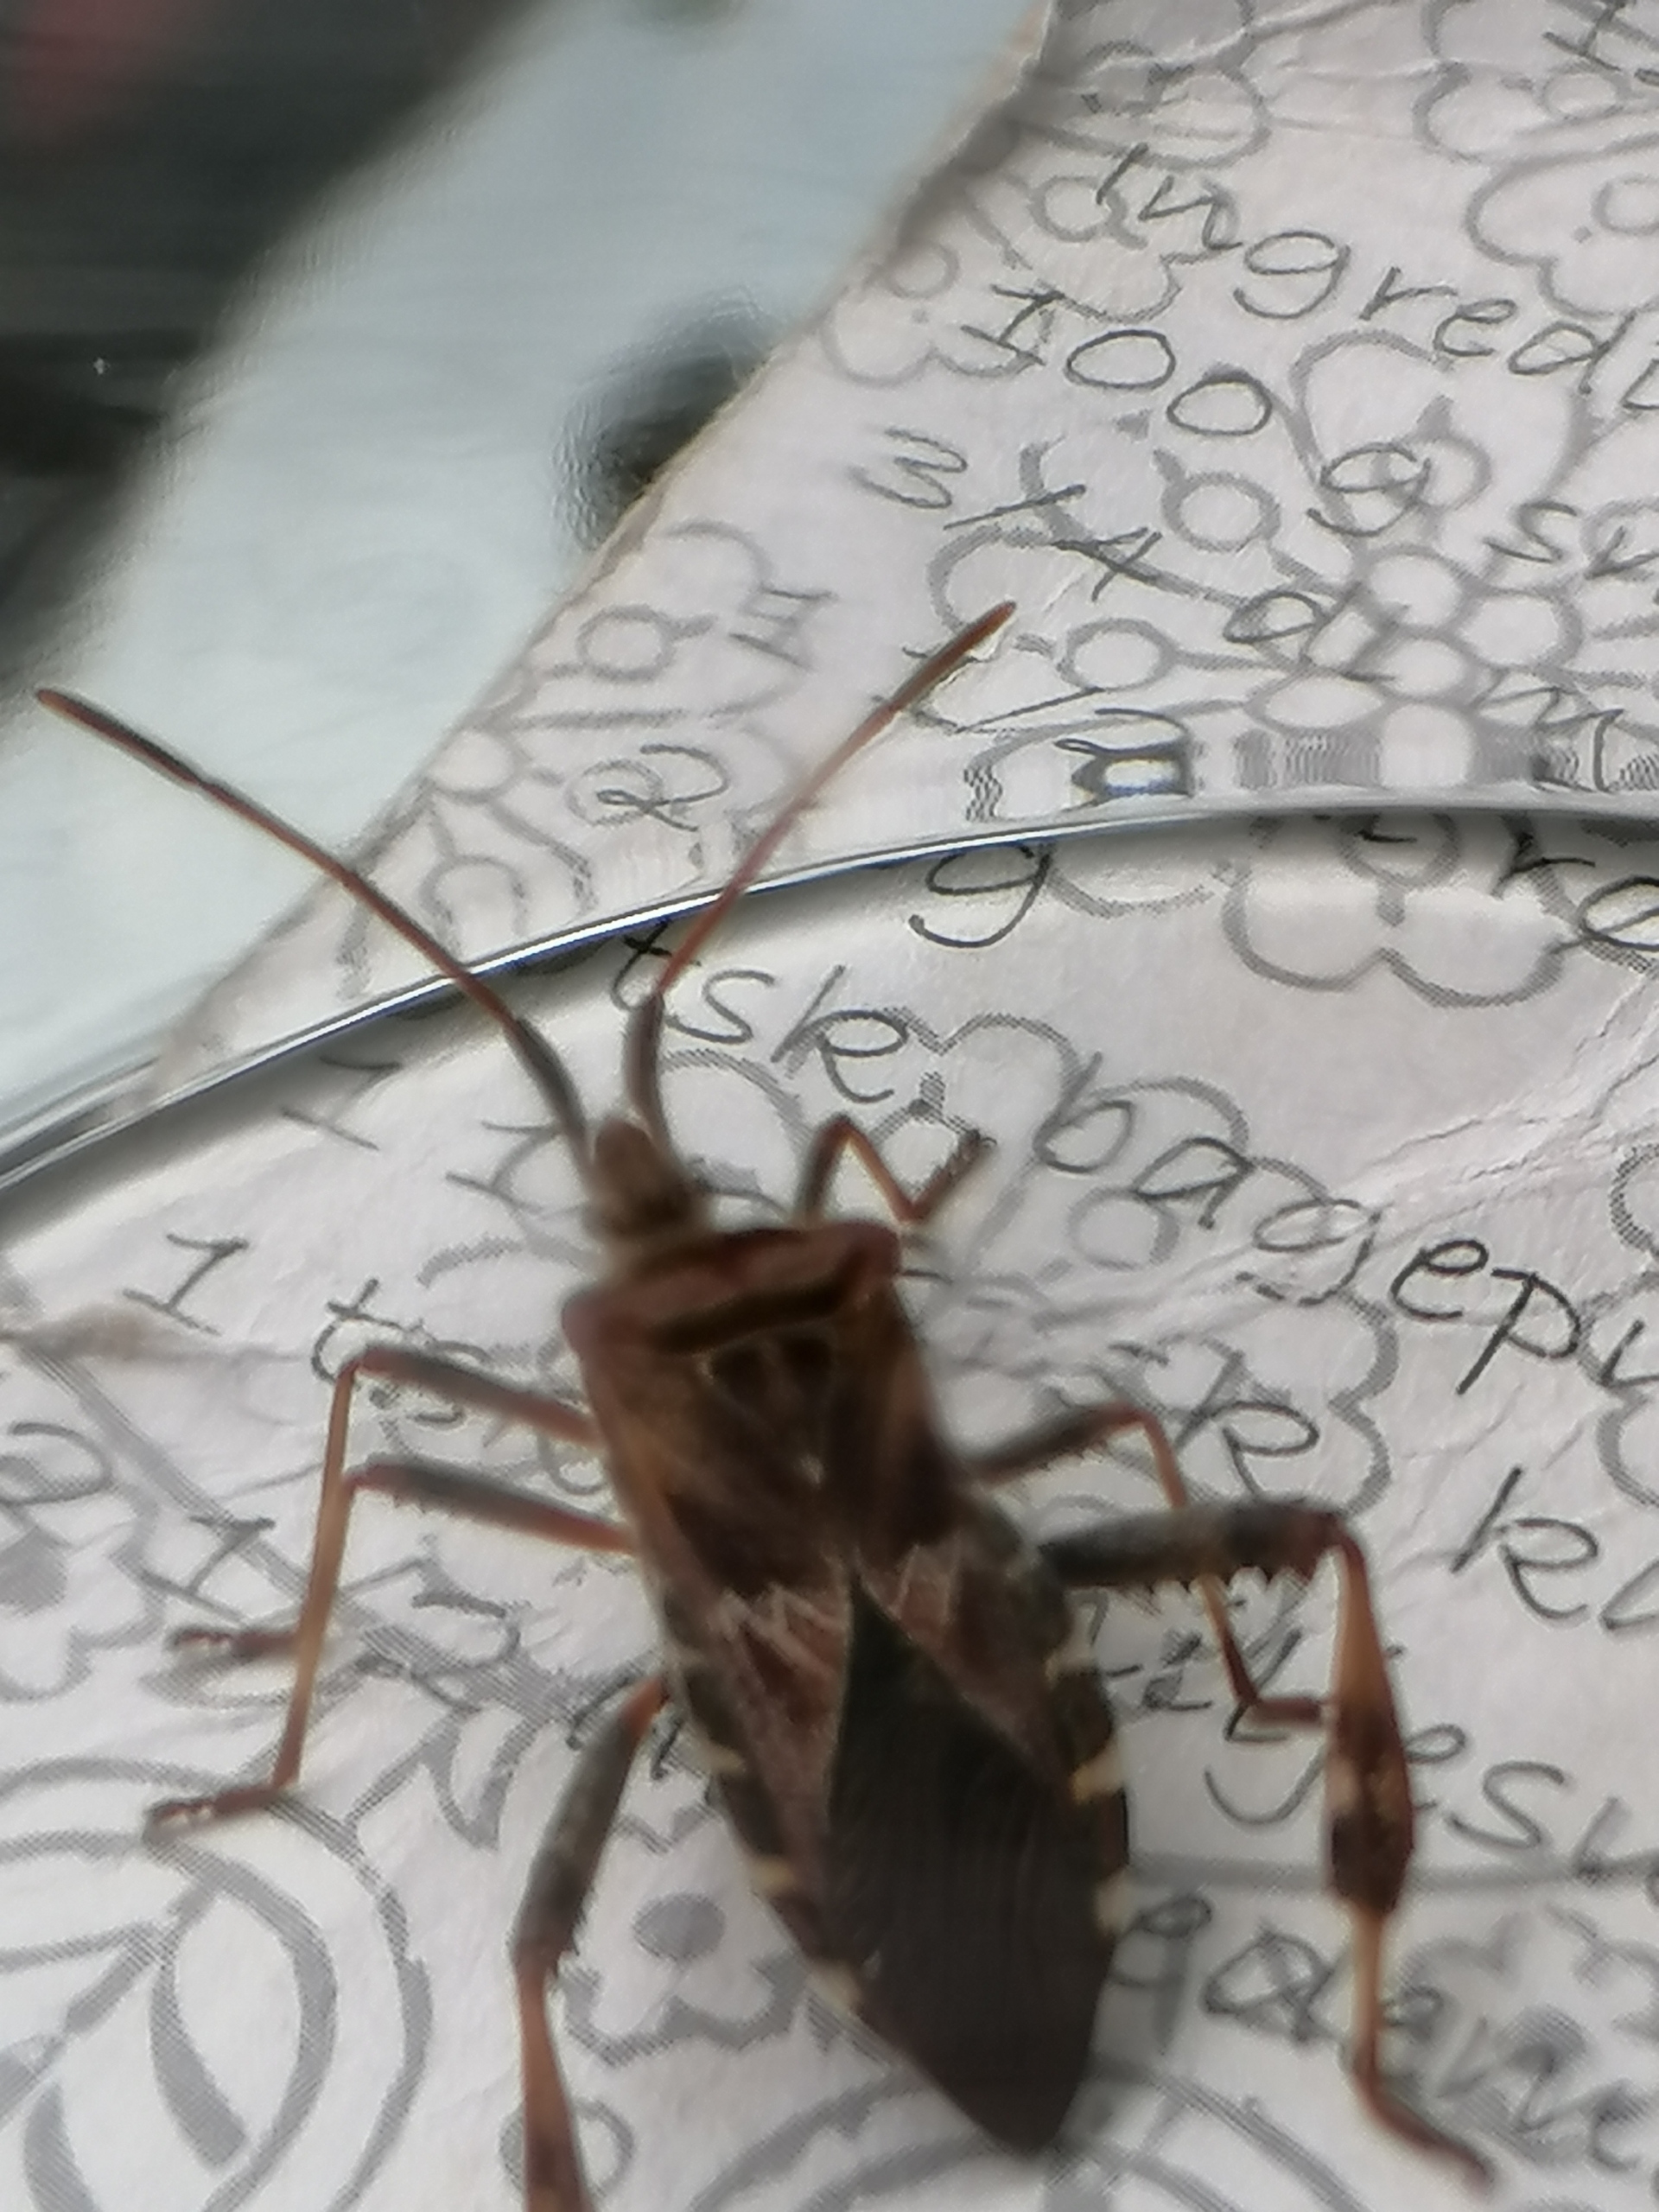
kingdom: Animalia
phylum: Arthropoda
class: Insecta
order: Hemiptera
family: Coreidae
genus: Leptoglossus
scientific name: Leptoglossus occidentalis
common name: Amerikansk fyrretæge
